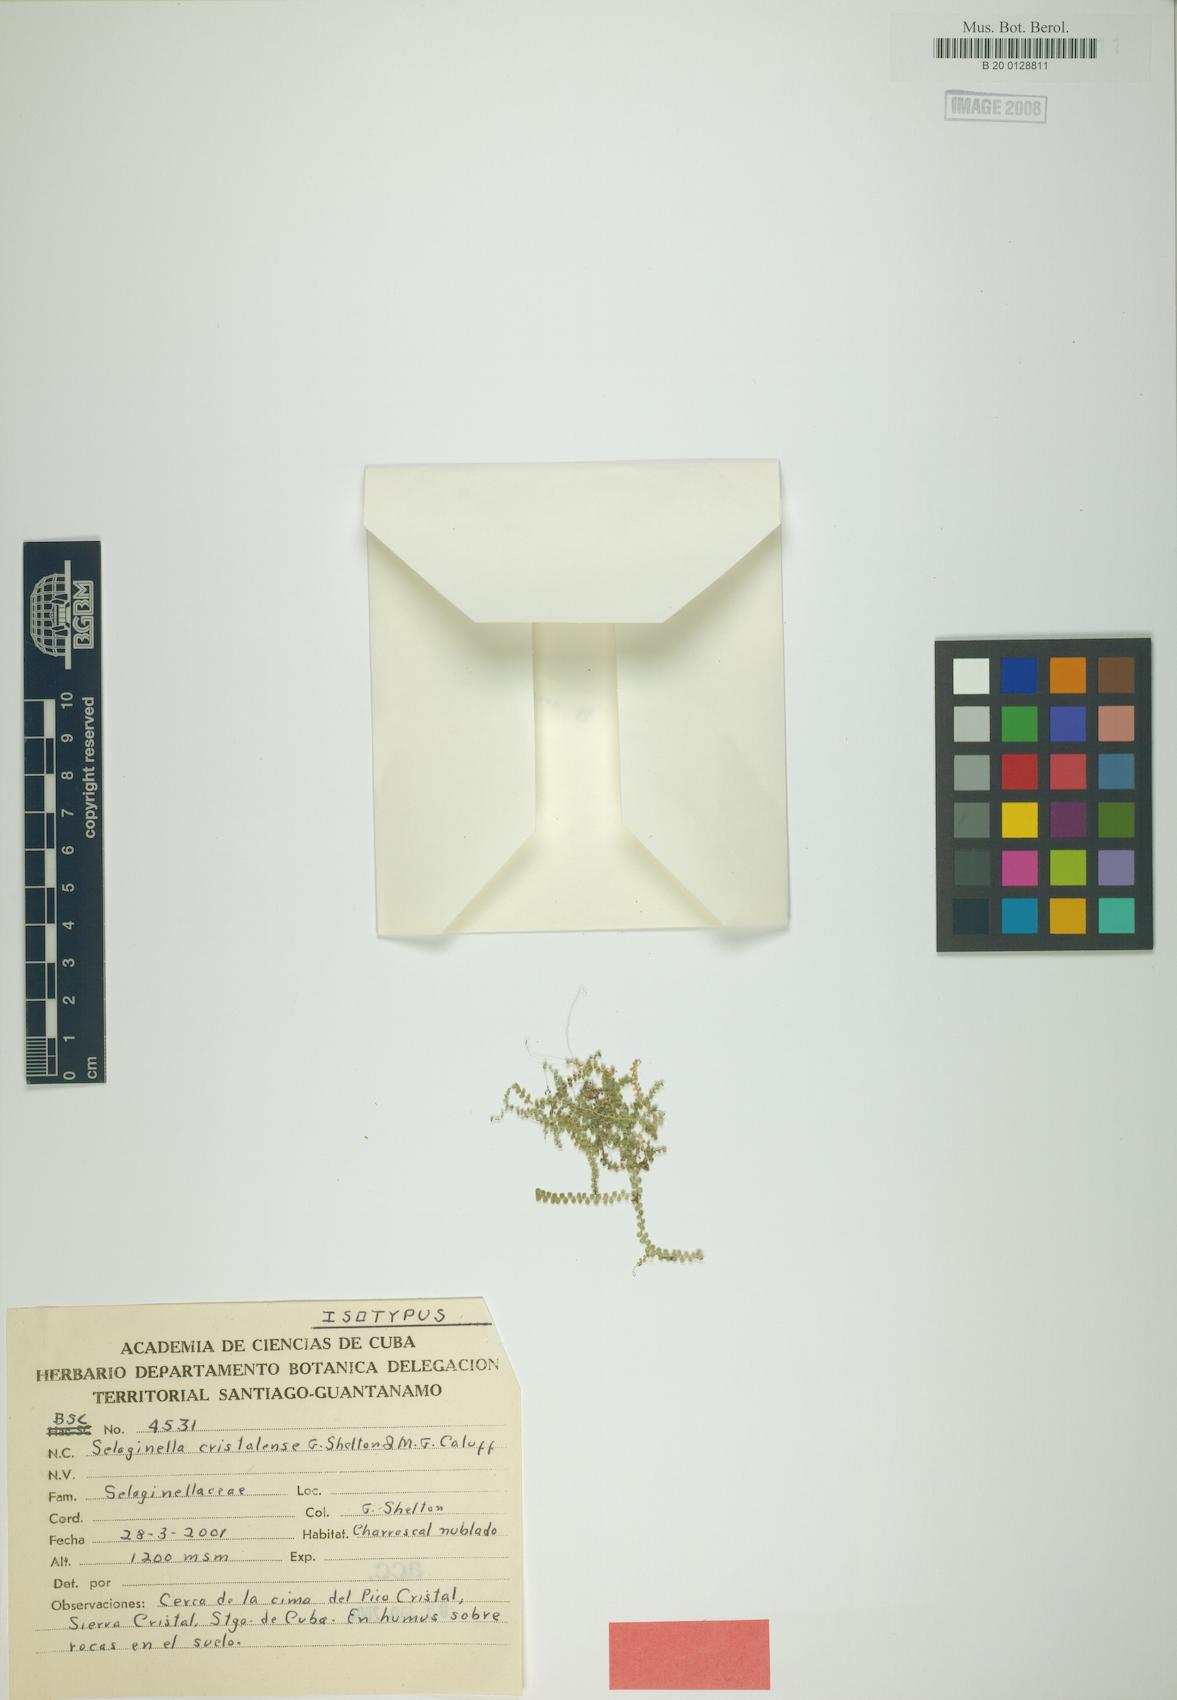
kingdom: Plantae
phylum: Tracheophyta
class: Lycopodiopsida
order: Selaginellales
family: Selaginellaceae
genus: Selaginella
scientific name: Selaginella cristalensis
